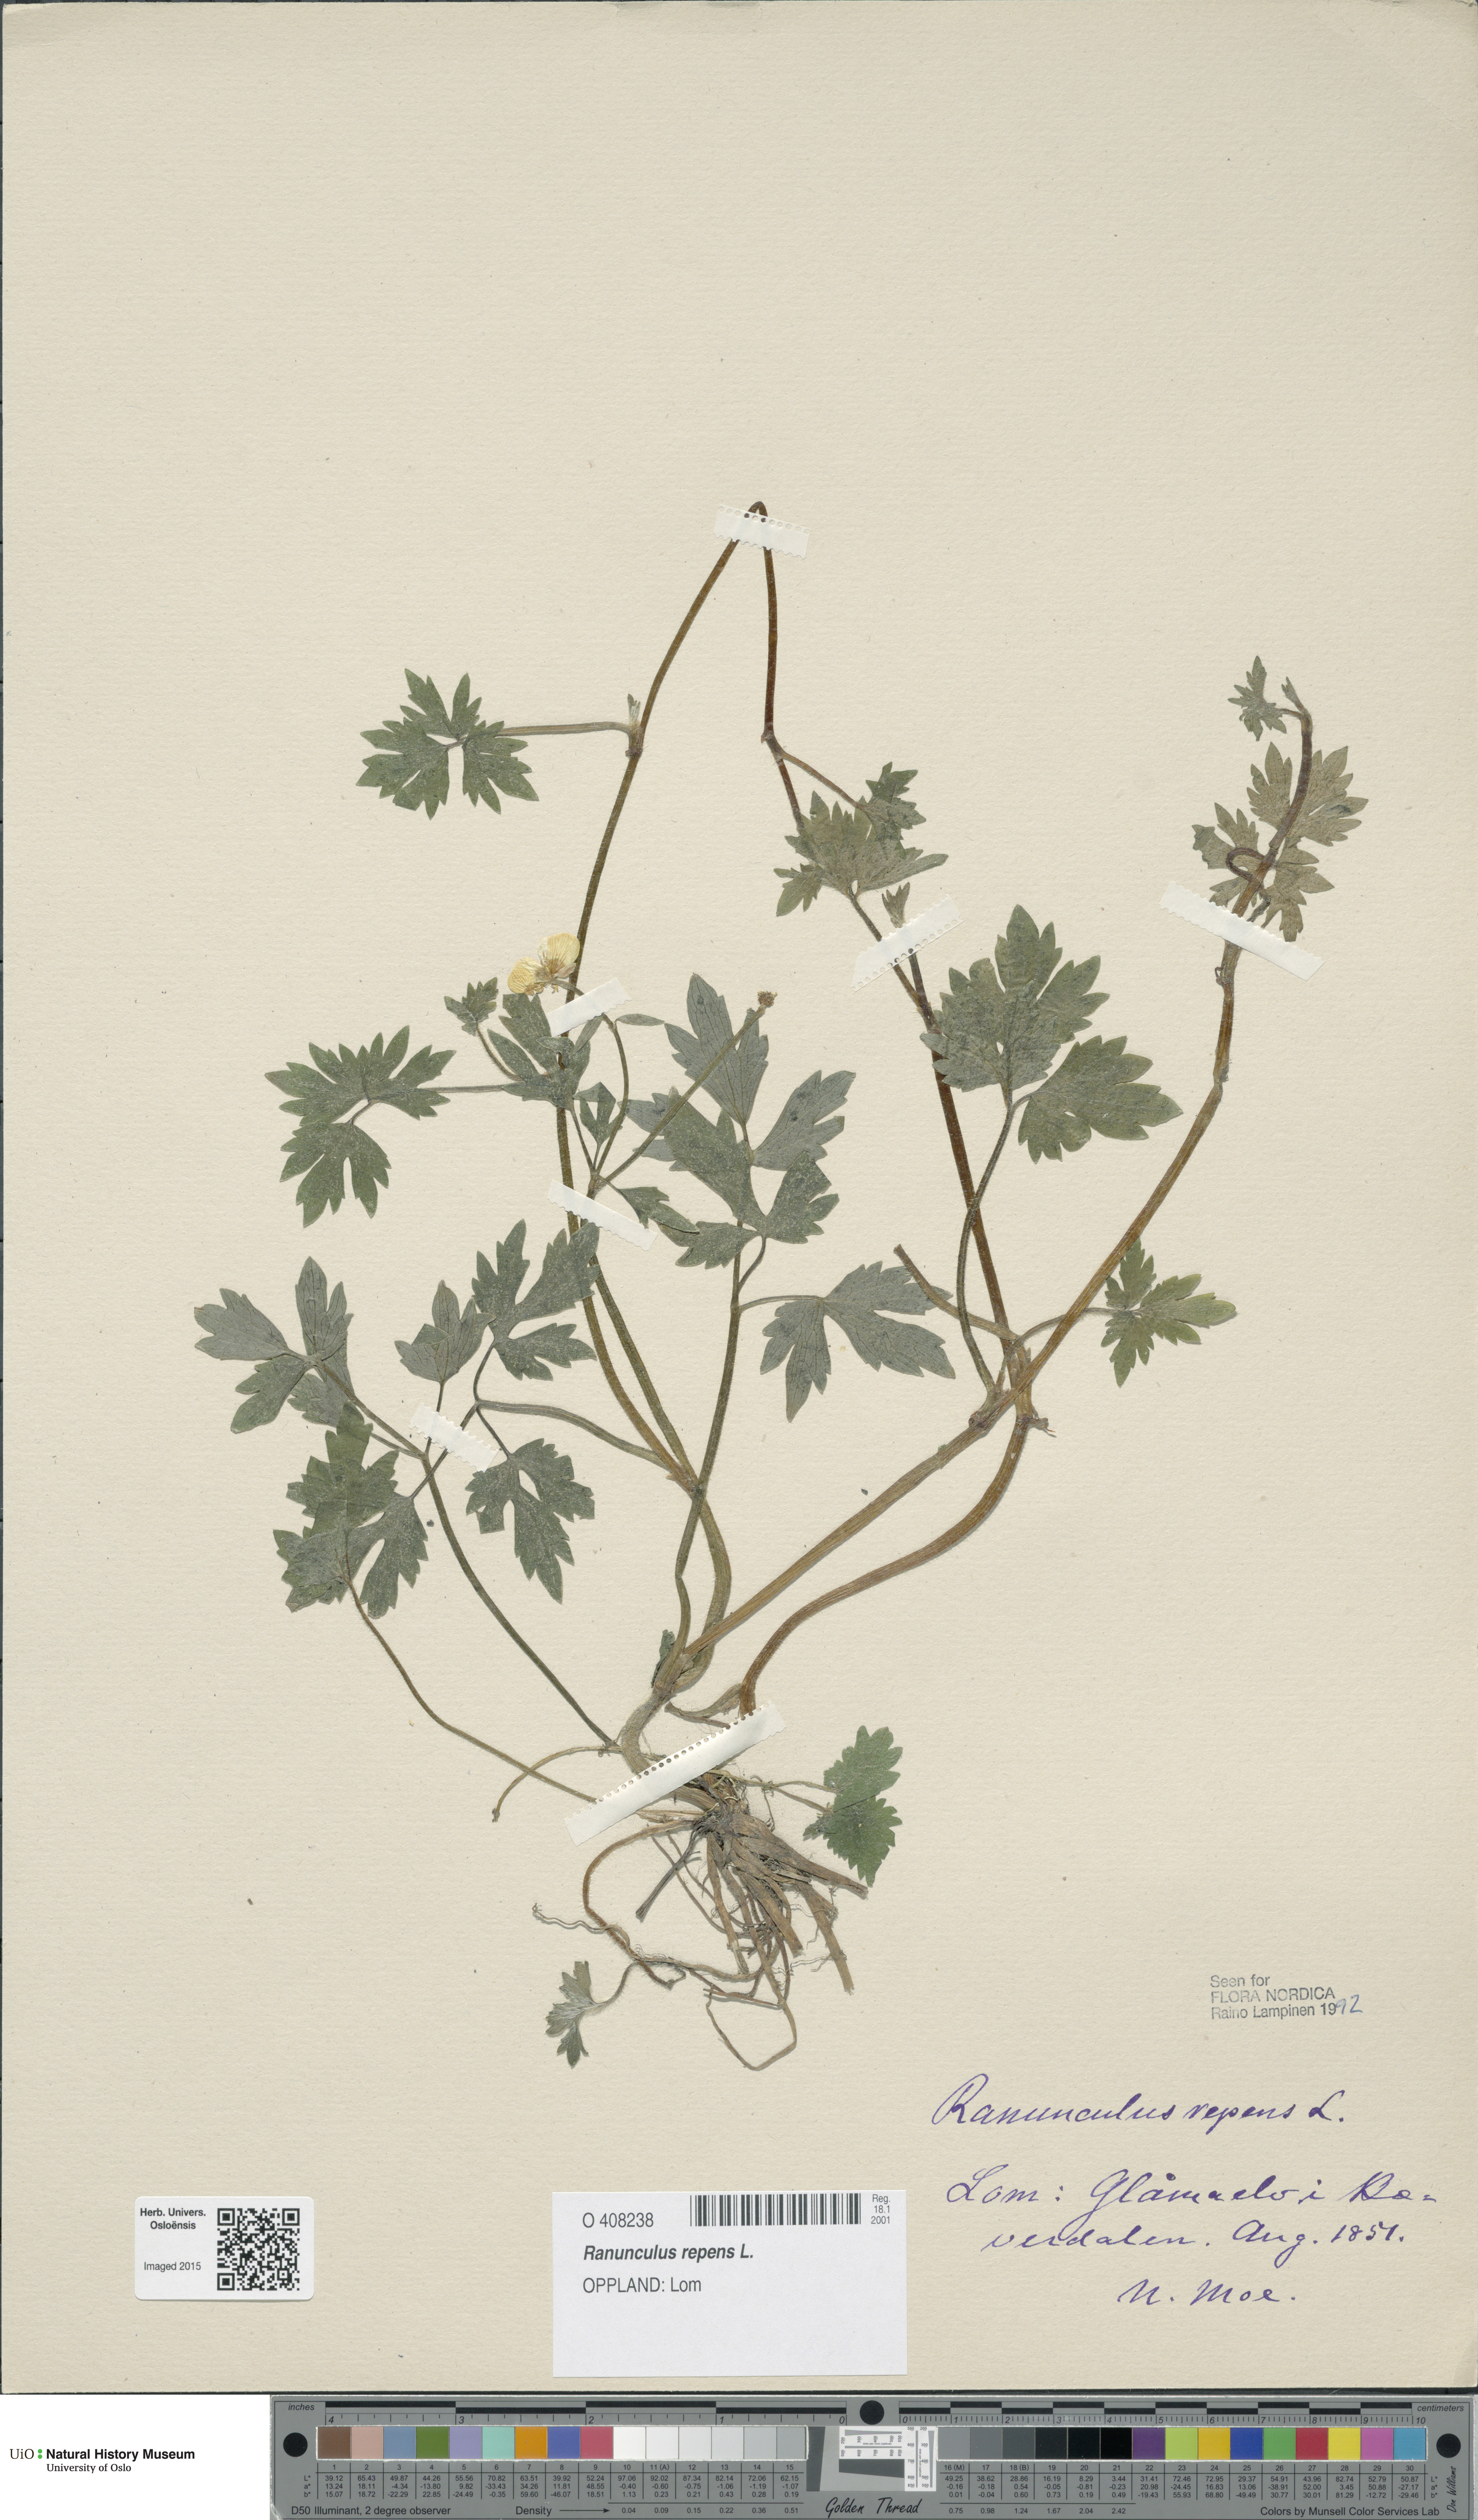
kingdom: Plantae
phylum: Tracheophyta
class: Magnoliopsida
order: Ranunculales
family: Ranunculaceae
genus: Ranunculus
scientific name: Ranunculus repens
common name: Creeping buttercup
